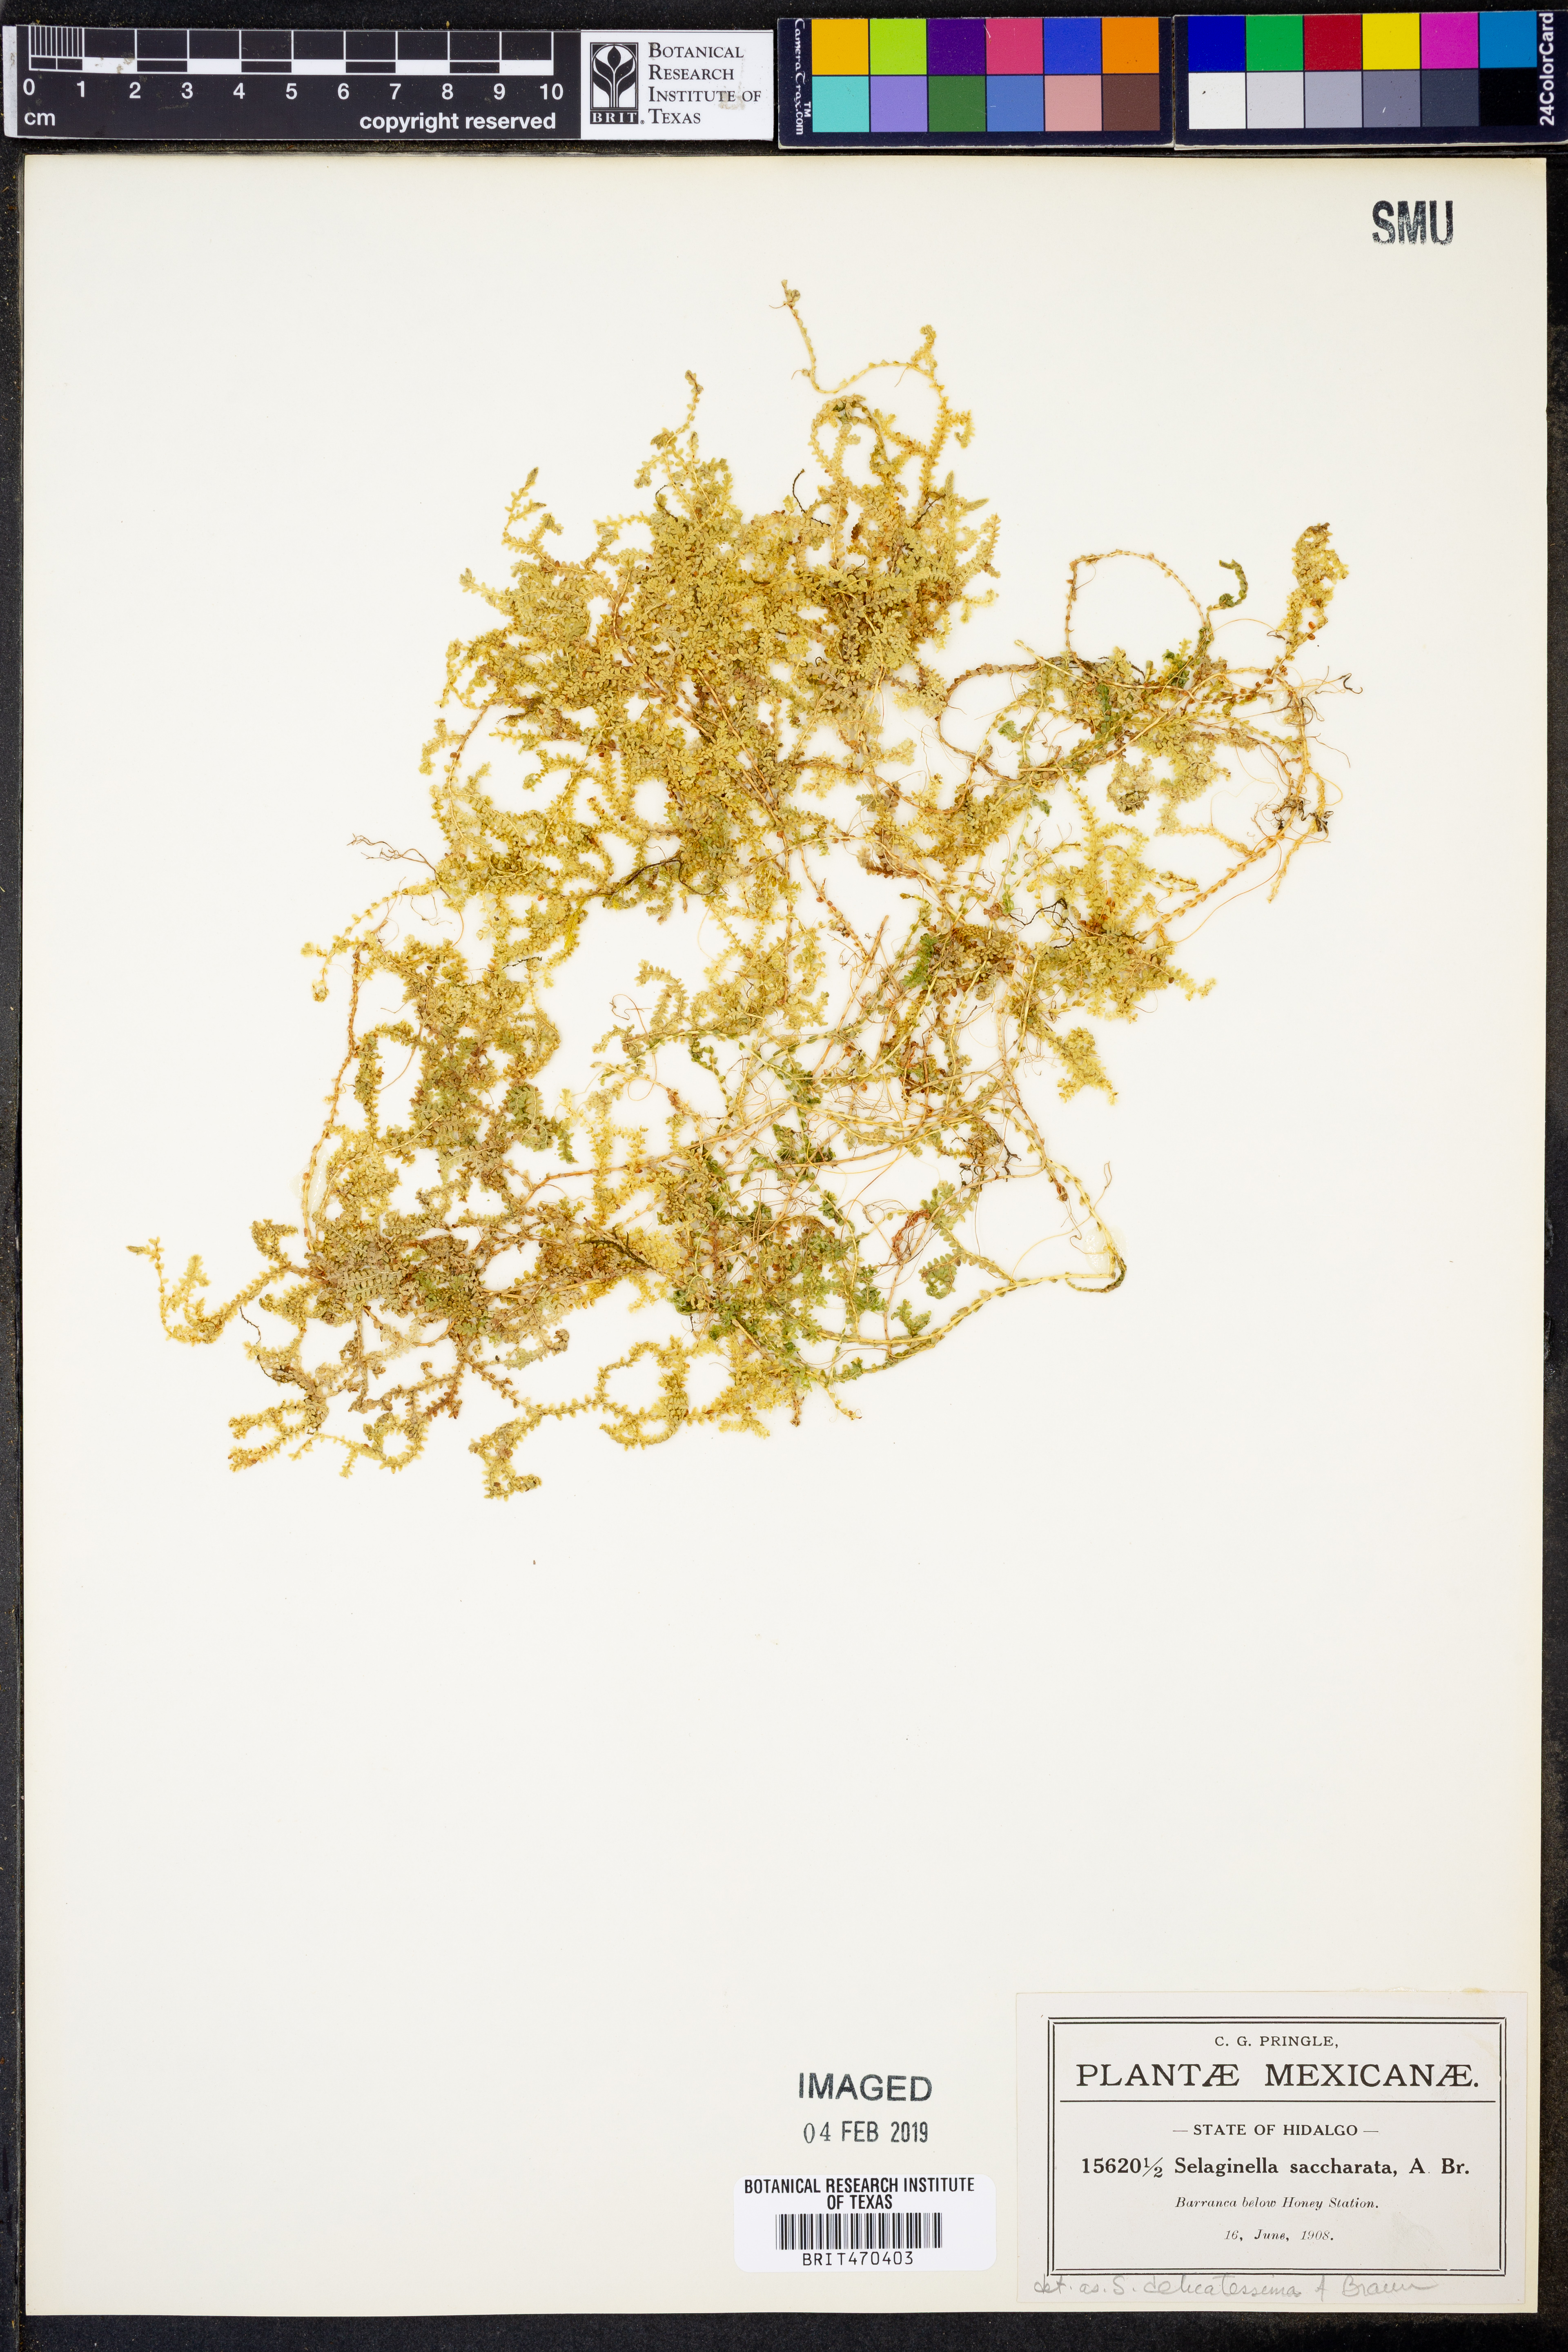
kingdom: Plantae
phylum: Tracheophyta
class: Lycopodiopsida
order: Selaginellales
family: Selaginellaceae
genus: Selaginella
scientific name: Selaginella delicatissima
